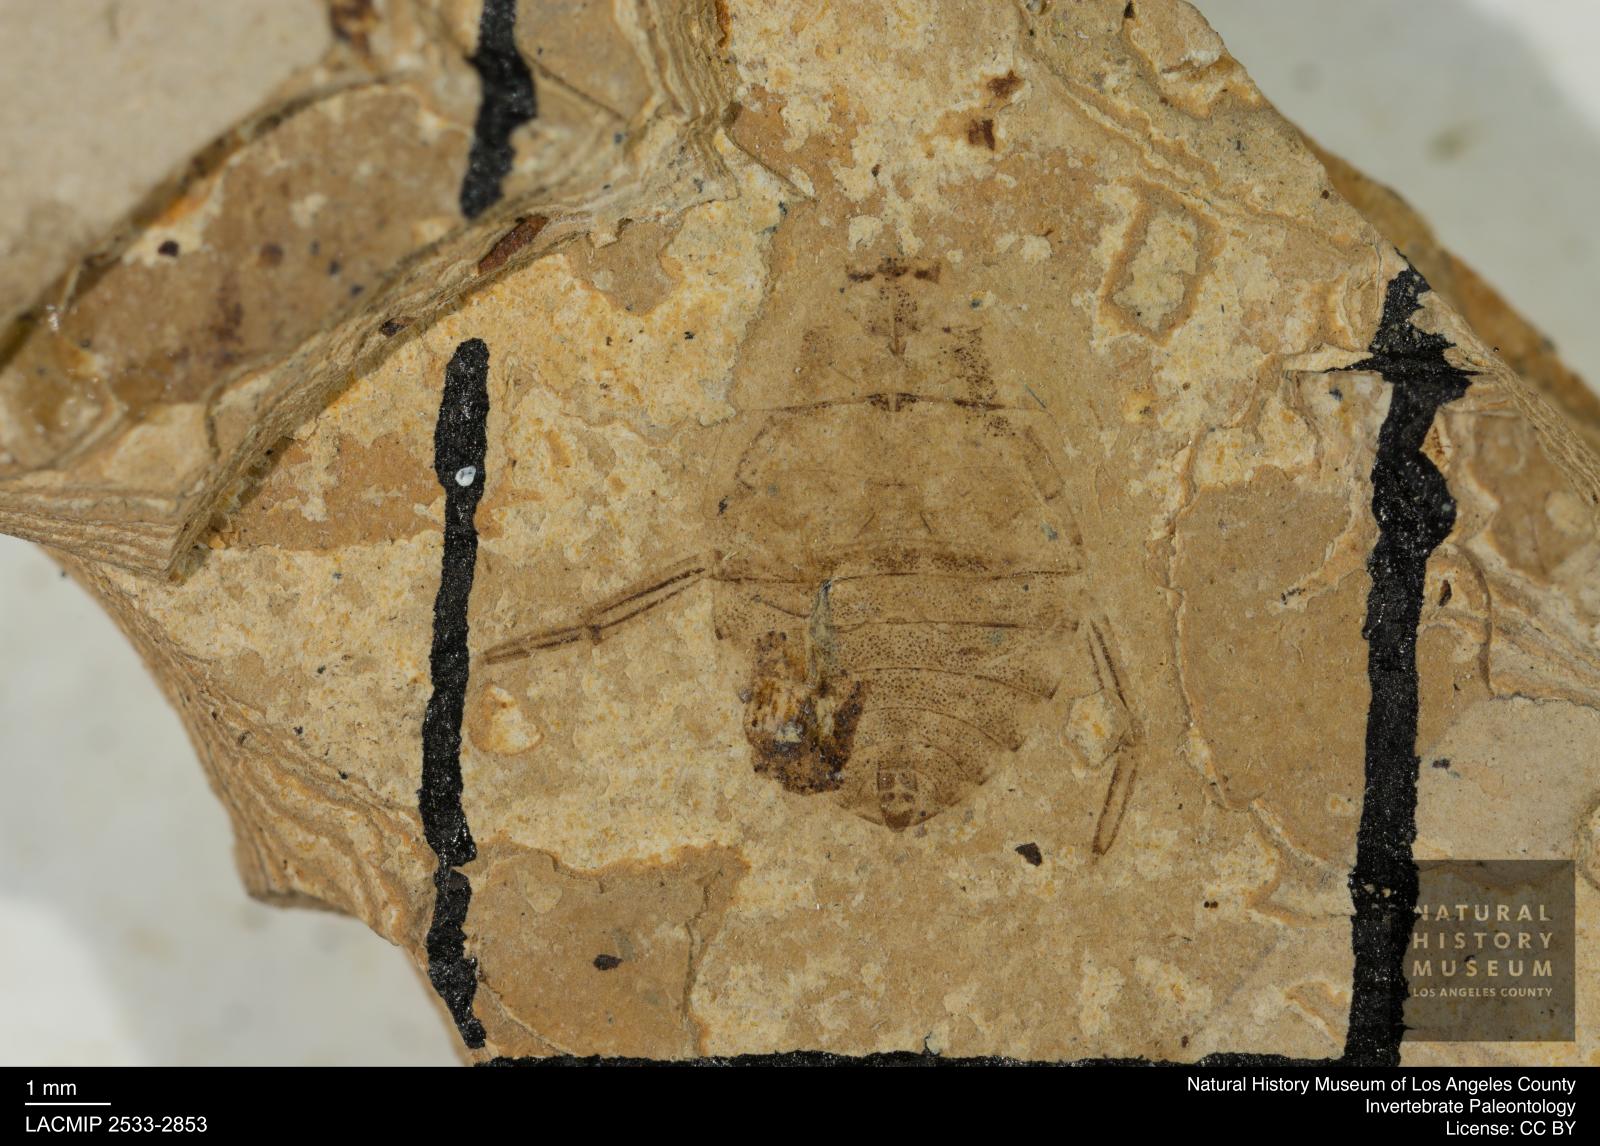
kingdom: Animalia
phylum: Arthropoda
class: Insecta
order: Hemiptera
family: Naucoridae
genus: Naucoris
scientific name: Naucoris rottensis
